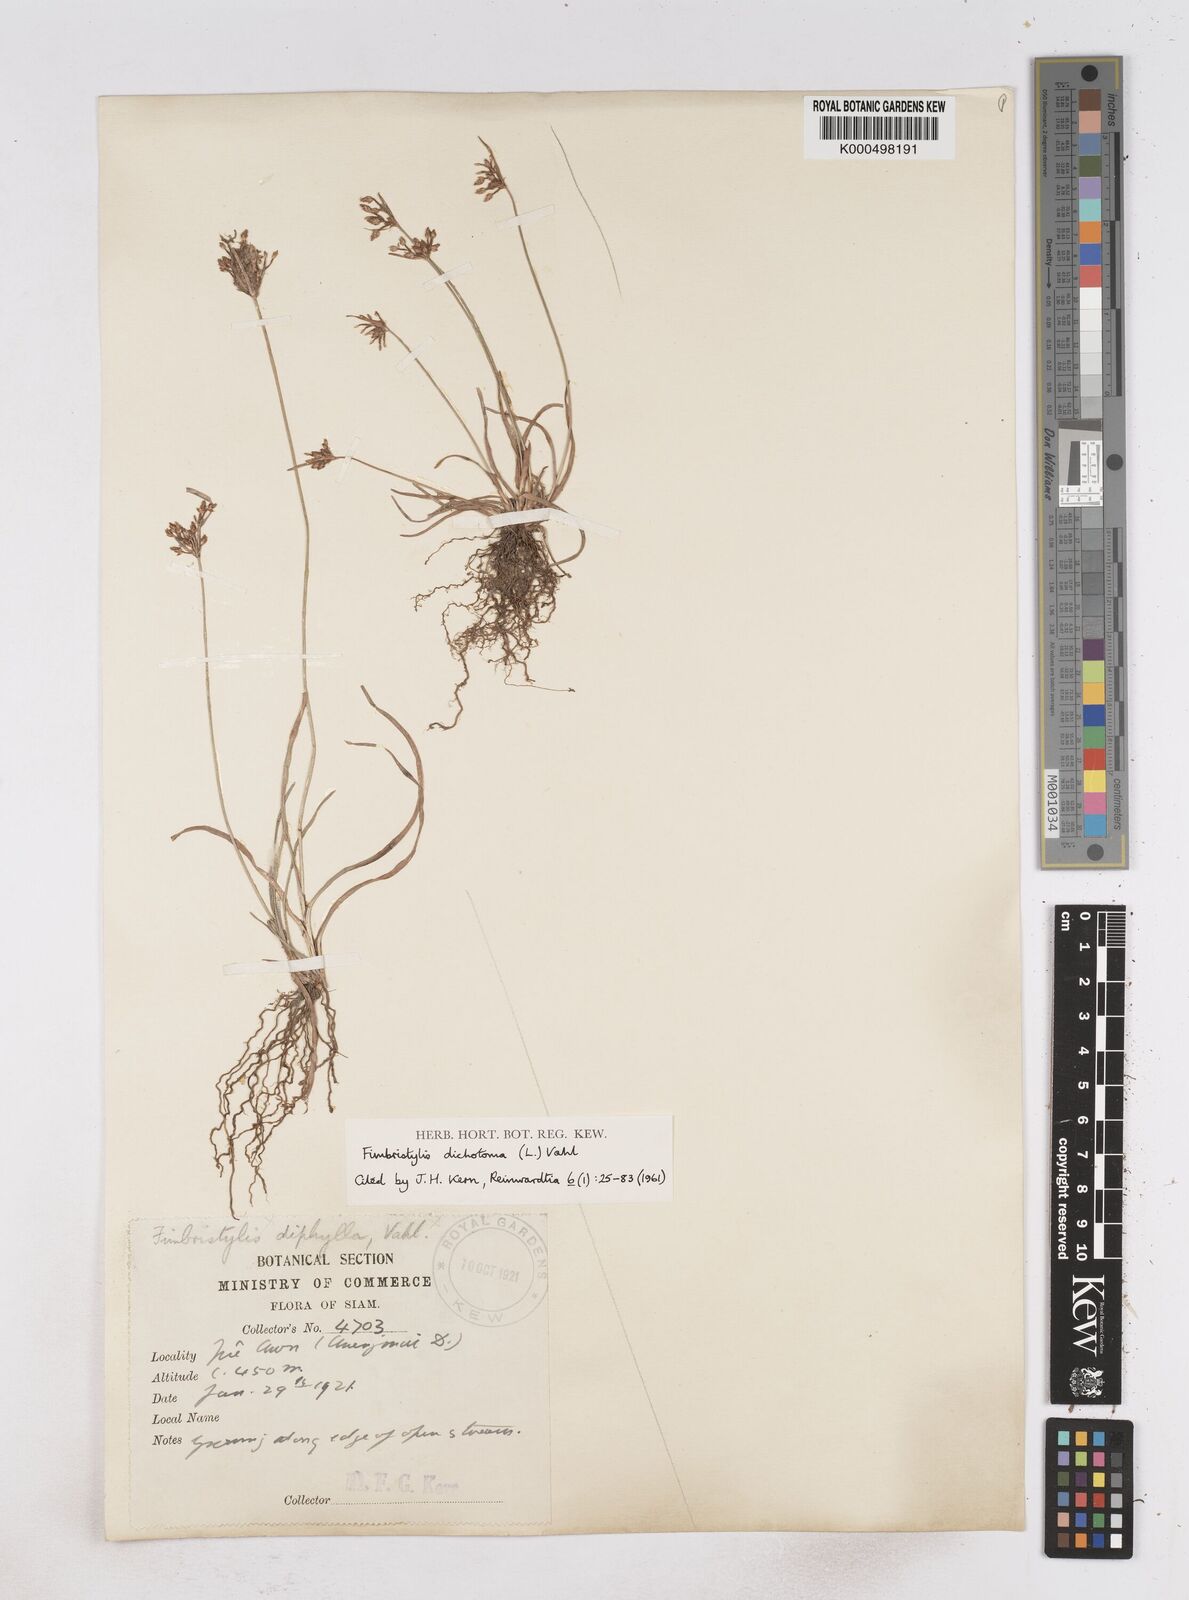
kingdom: Plantae
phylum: Tracheophyta
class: Liliopsida
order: Poales
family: Cyperaceae
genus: Fimbristylis
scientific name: Fimbristylis dichotoma
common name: Forked fimbry
